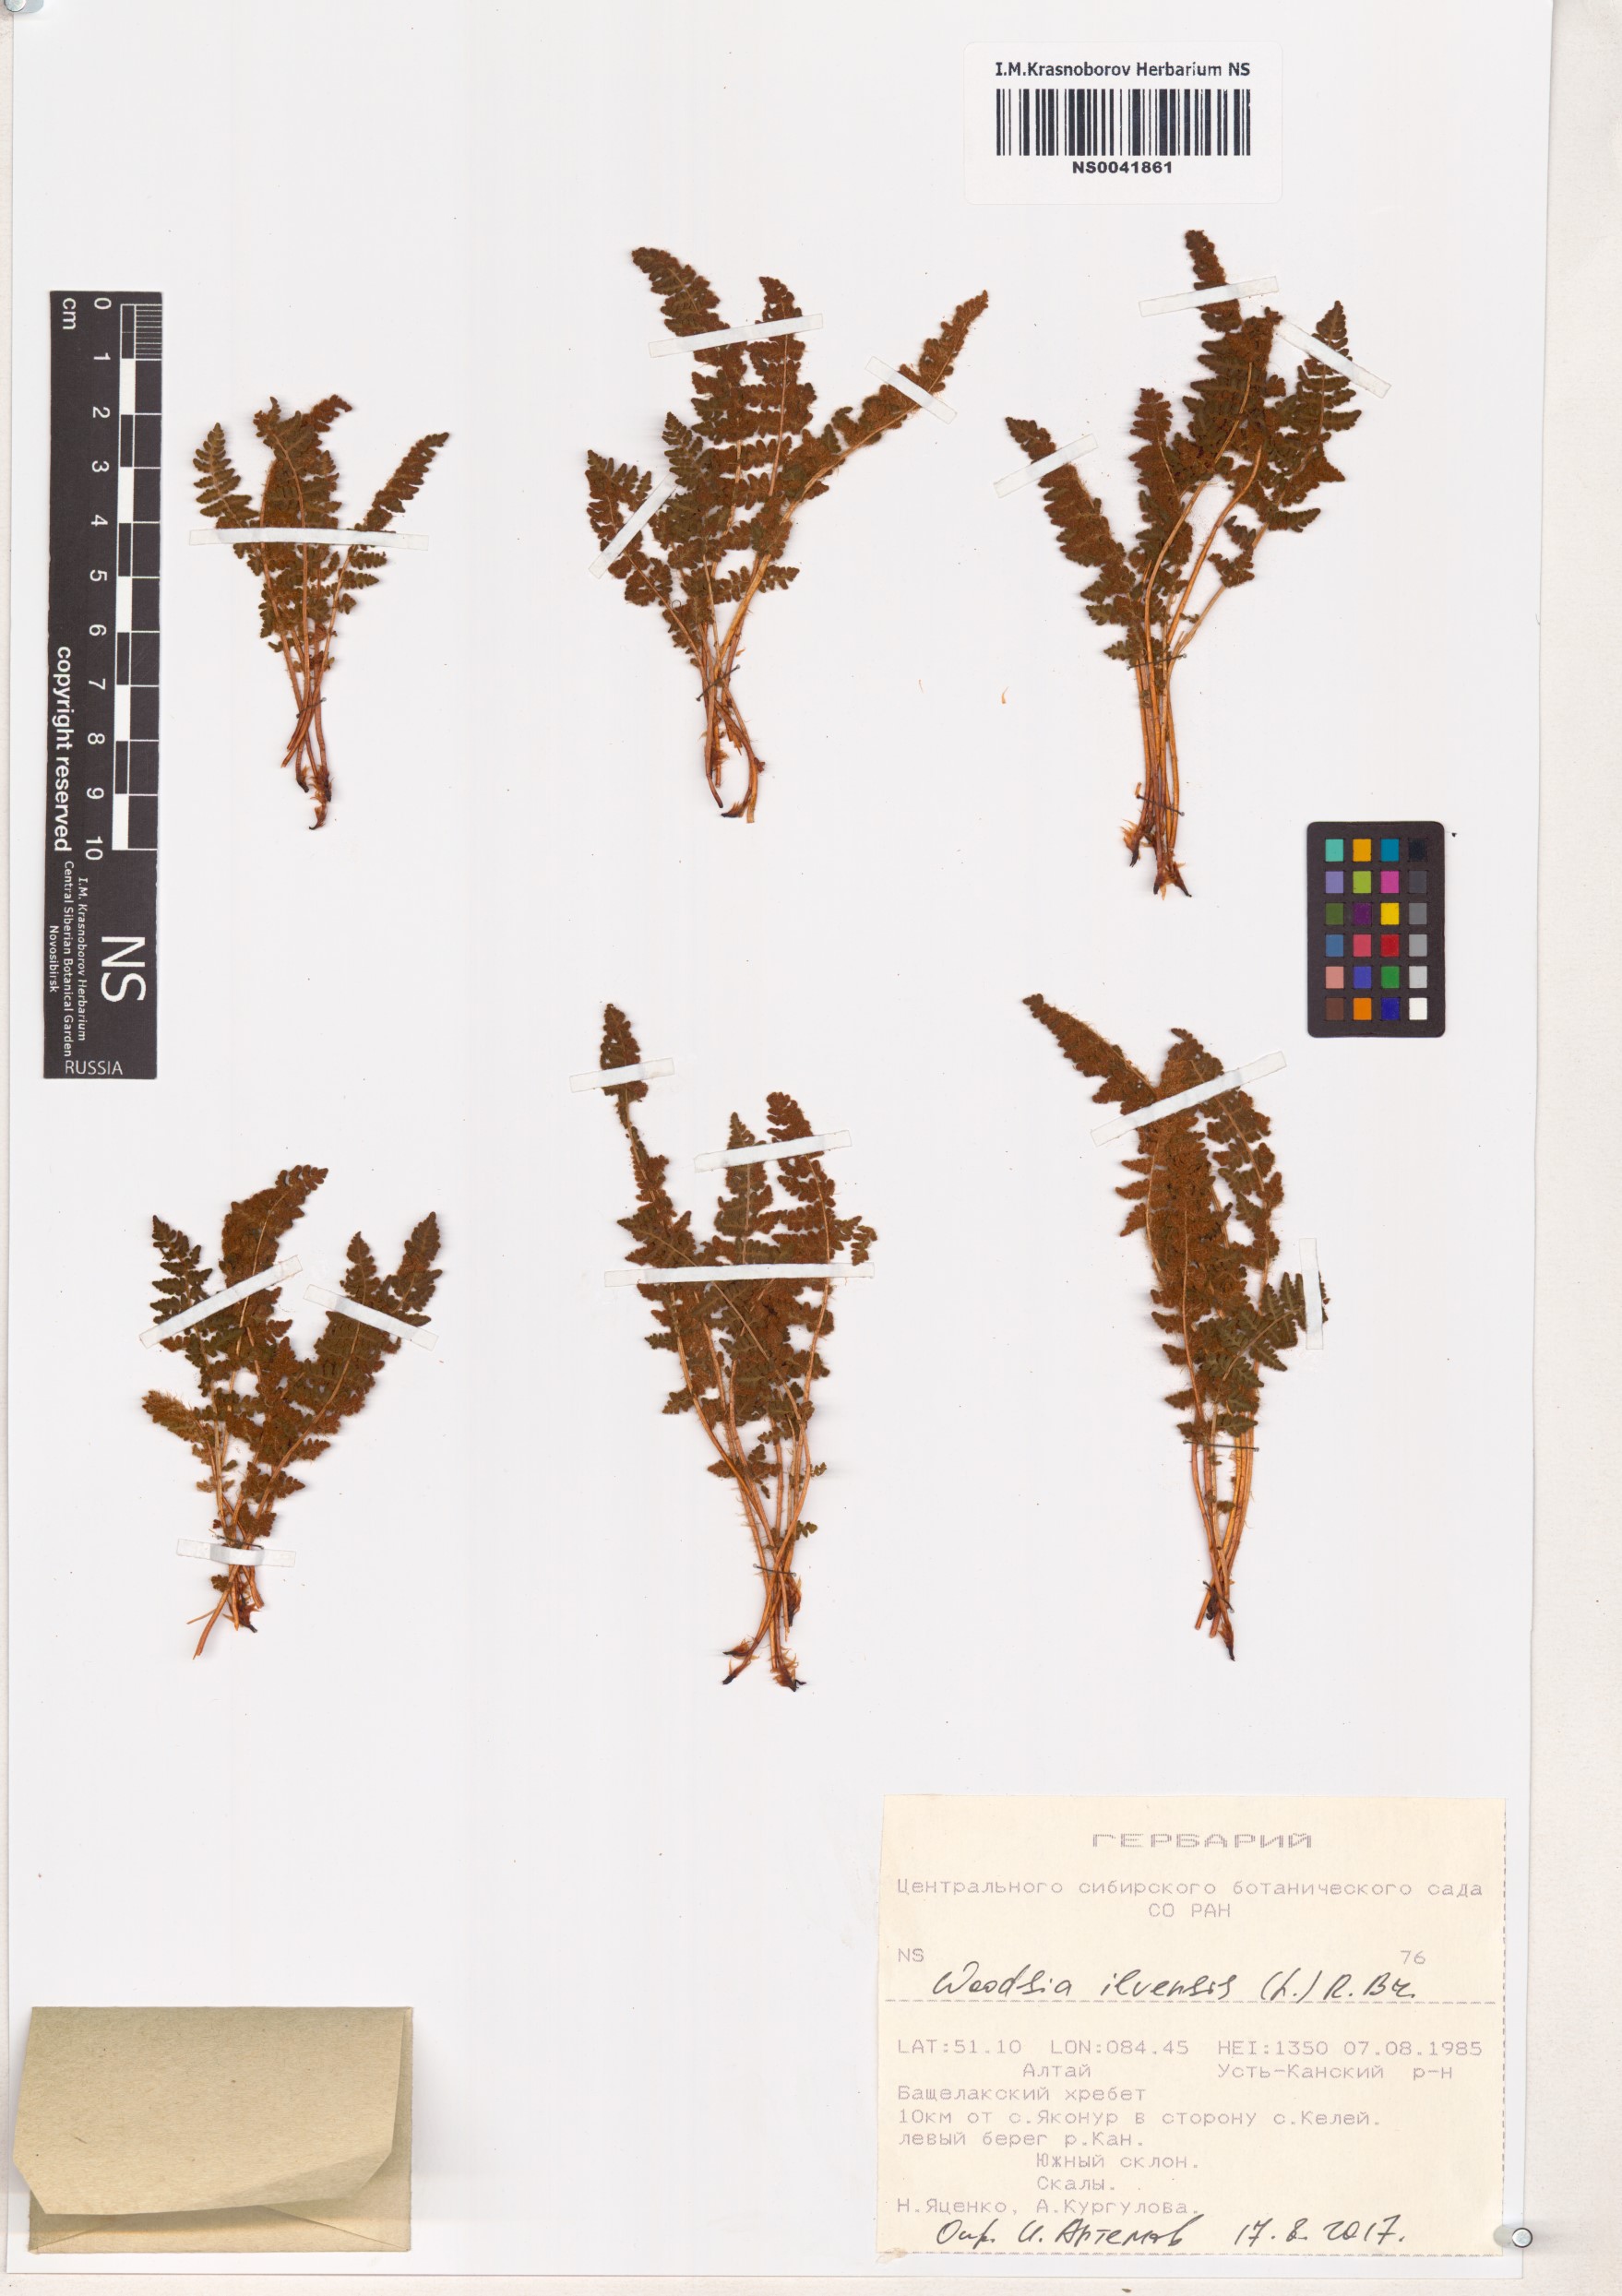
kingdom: Plantae
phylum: Tracheophyta
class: Polypodiopsida
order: Polypodiales
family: Woodsiaceae
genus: Woodsia
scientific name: Woodsia ilvensis
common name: Fragrant woodsia
